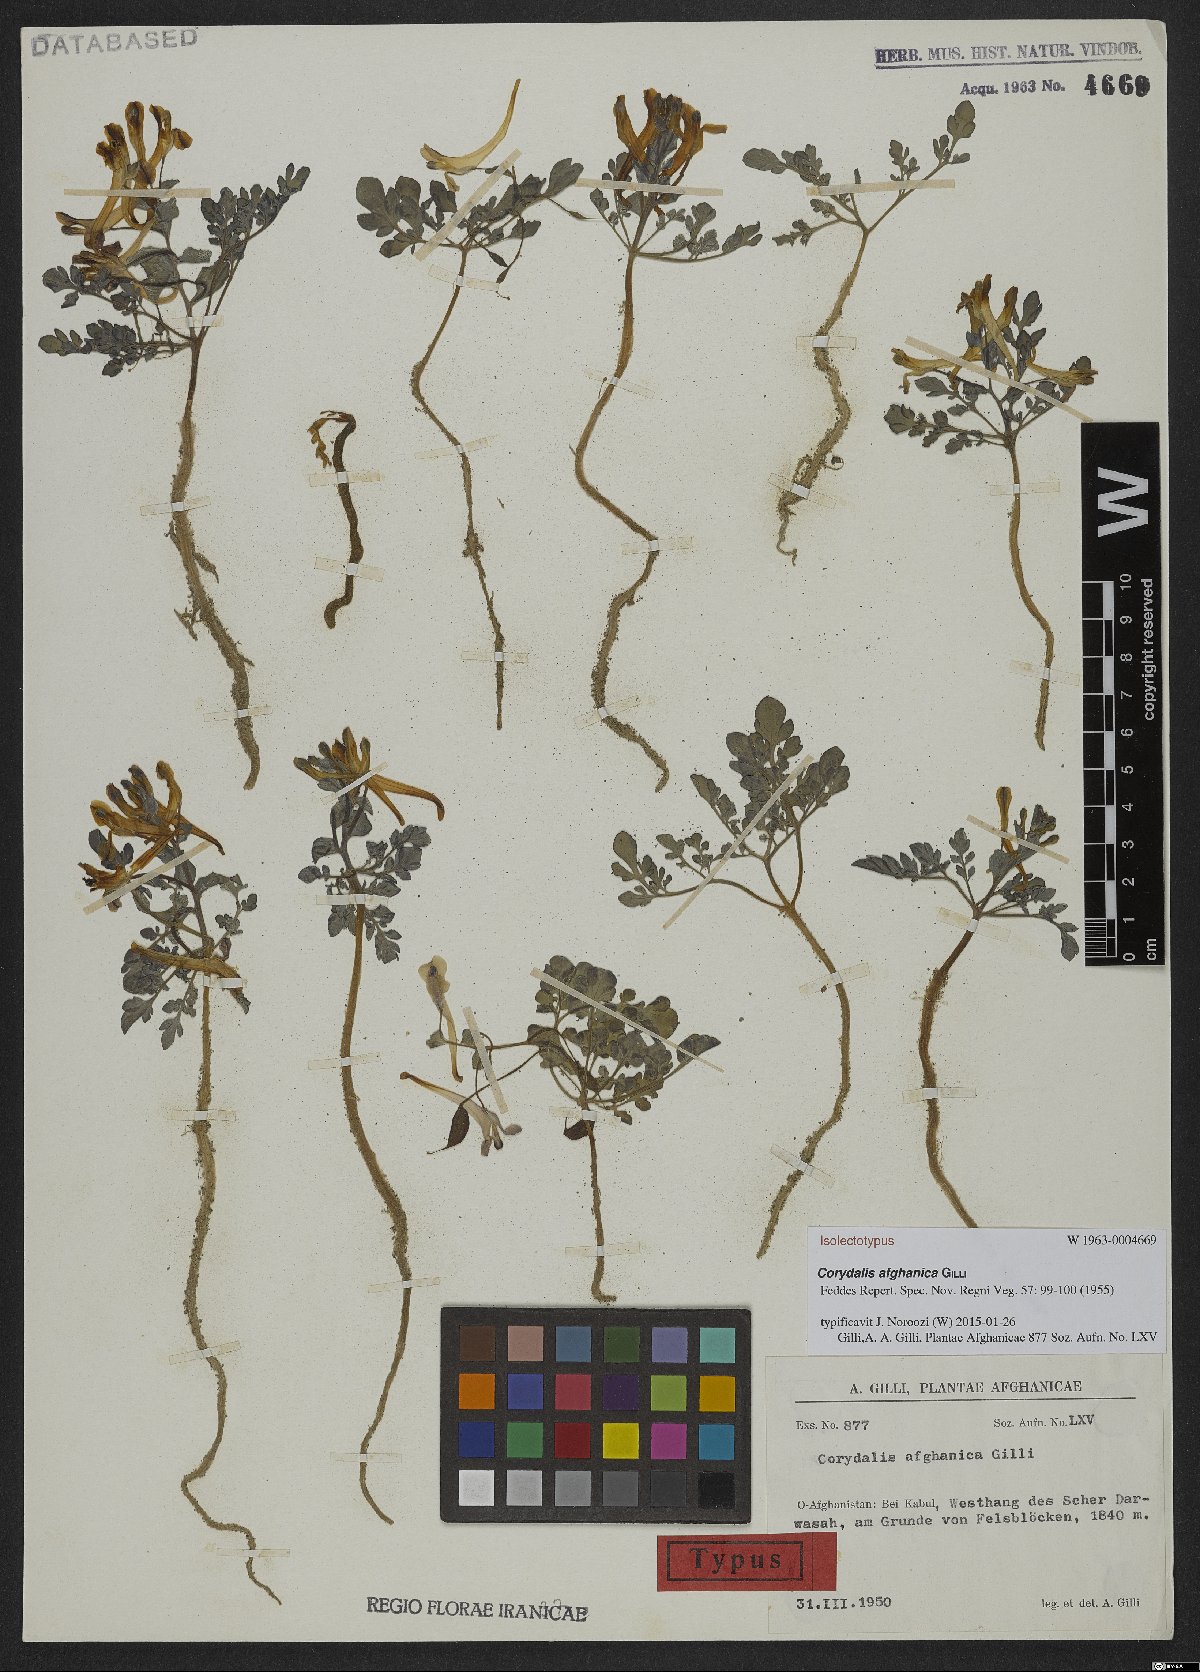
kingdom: Plantae
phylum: Tracheophyta
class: Magnoliopsida
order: Ranunculales
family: Papaveraceae
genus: Corydalis
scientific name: Corydalis afghanica
